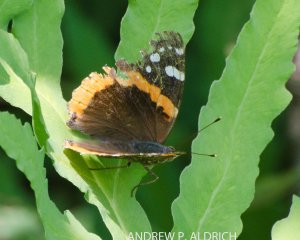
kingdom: Animalia
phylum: Arthropoda
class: Insecta
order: Lepidoptera
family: Nymphalidae
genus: Vanessa
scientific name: Vanessa atalanta
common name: Red Admiral
